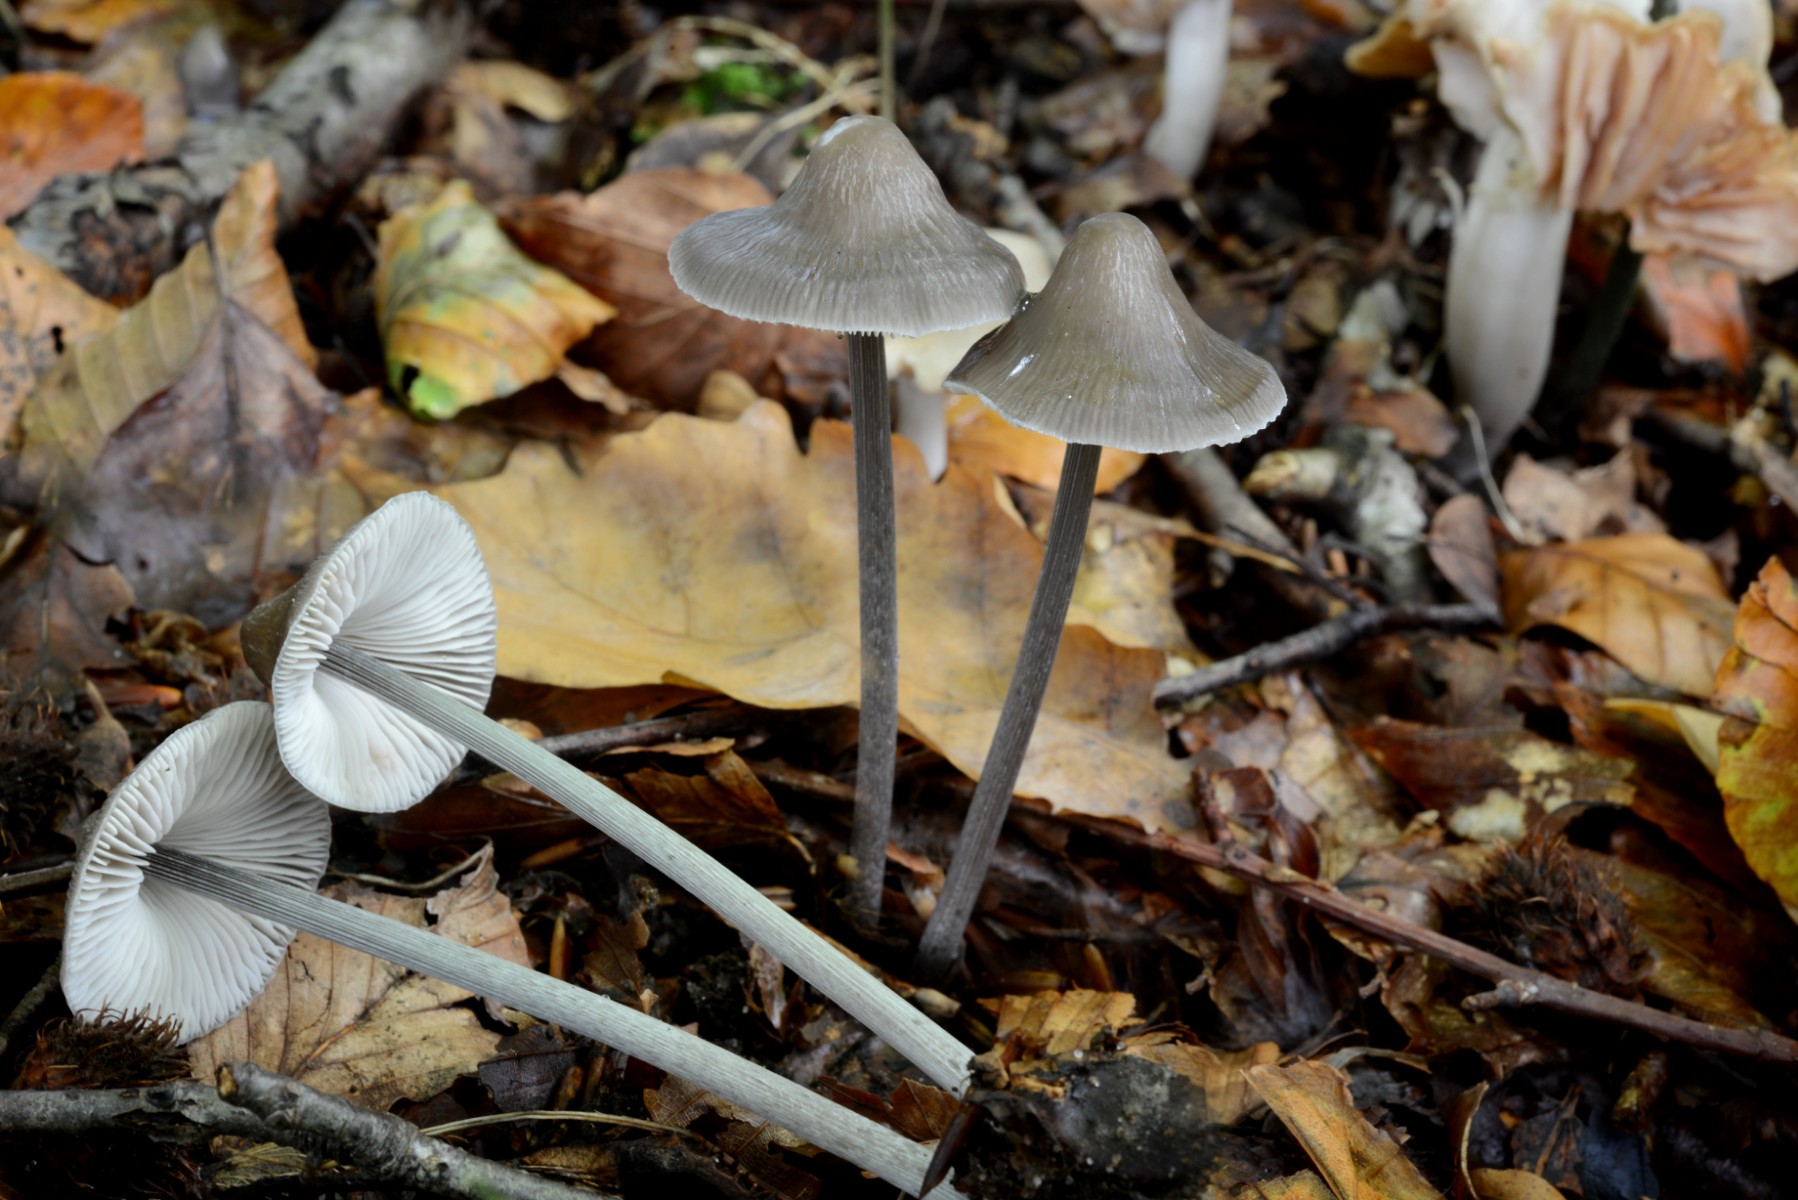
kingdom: Fungi
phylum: Basidiomycota
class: Agaricomycetes
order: Agaricales
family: Mycenaceae
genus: Mycena
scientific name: Mycena polygramma
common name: mangestribet huesvamp
